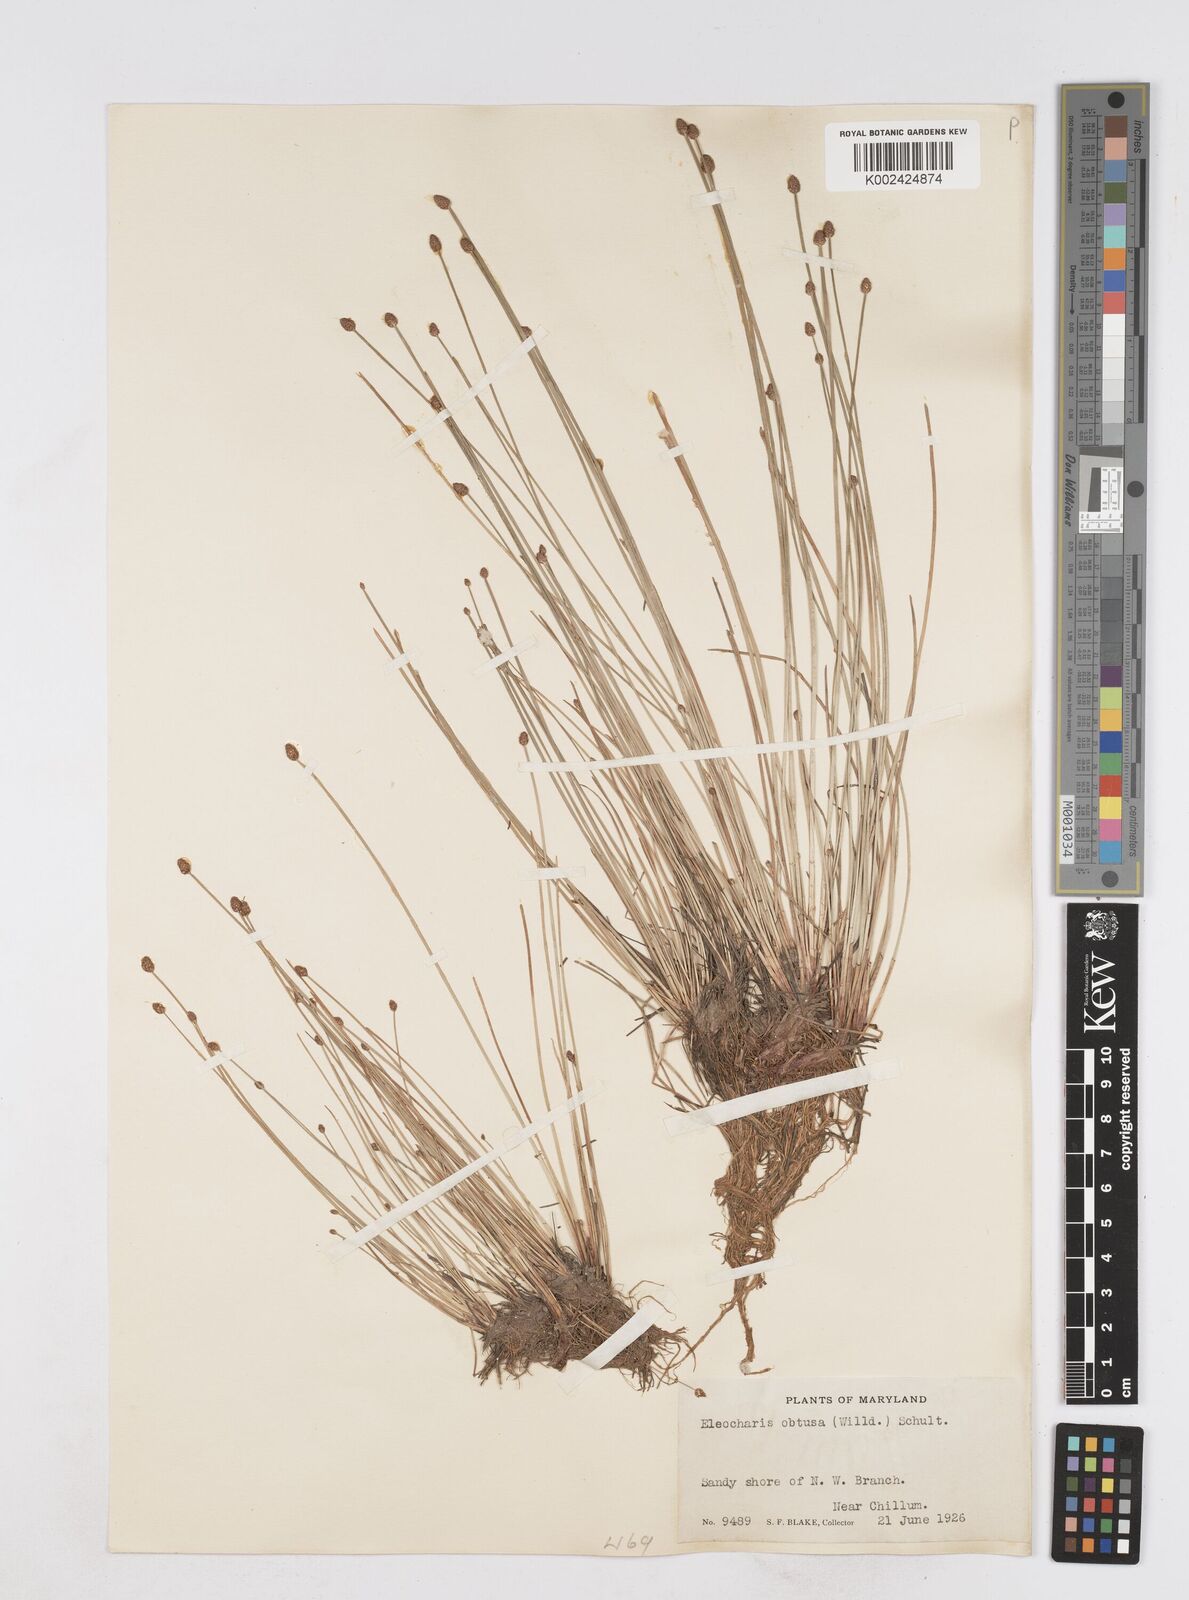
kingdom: Plantae
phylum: Tracheophyta
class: Liliopsida
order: Poales
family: Cyperaceae
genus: Eleocharis
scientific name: Eleocharis obtusa
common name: Blunt spikerush
